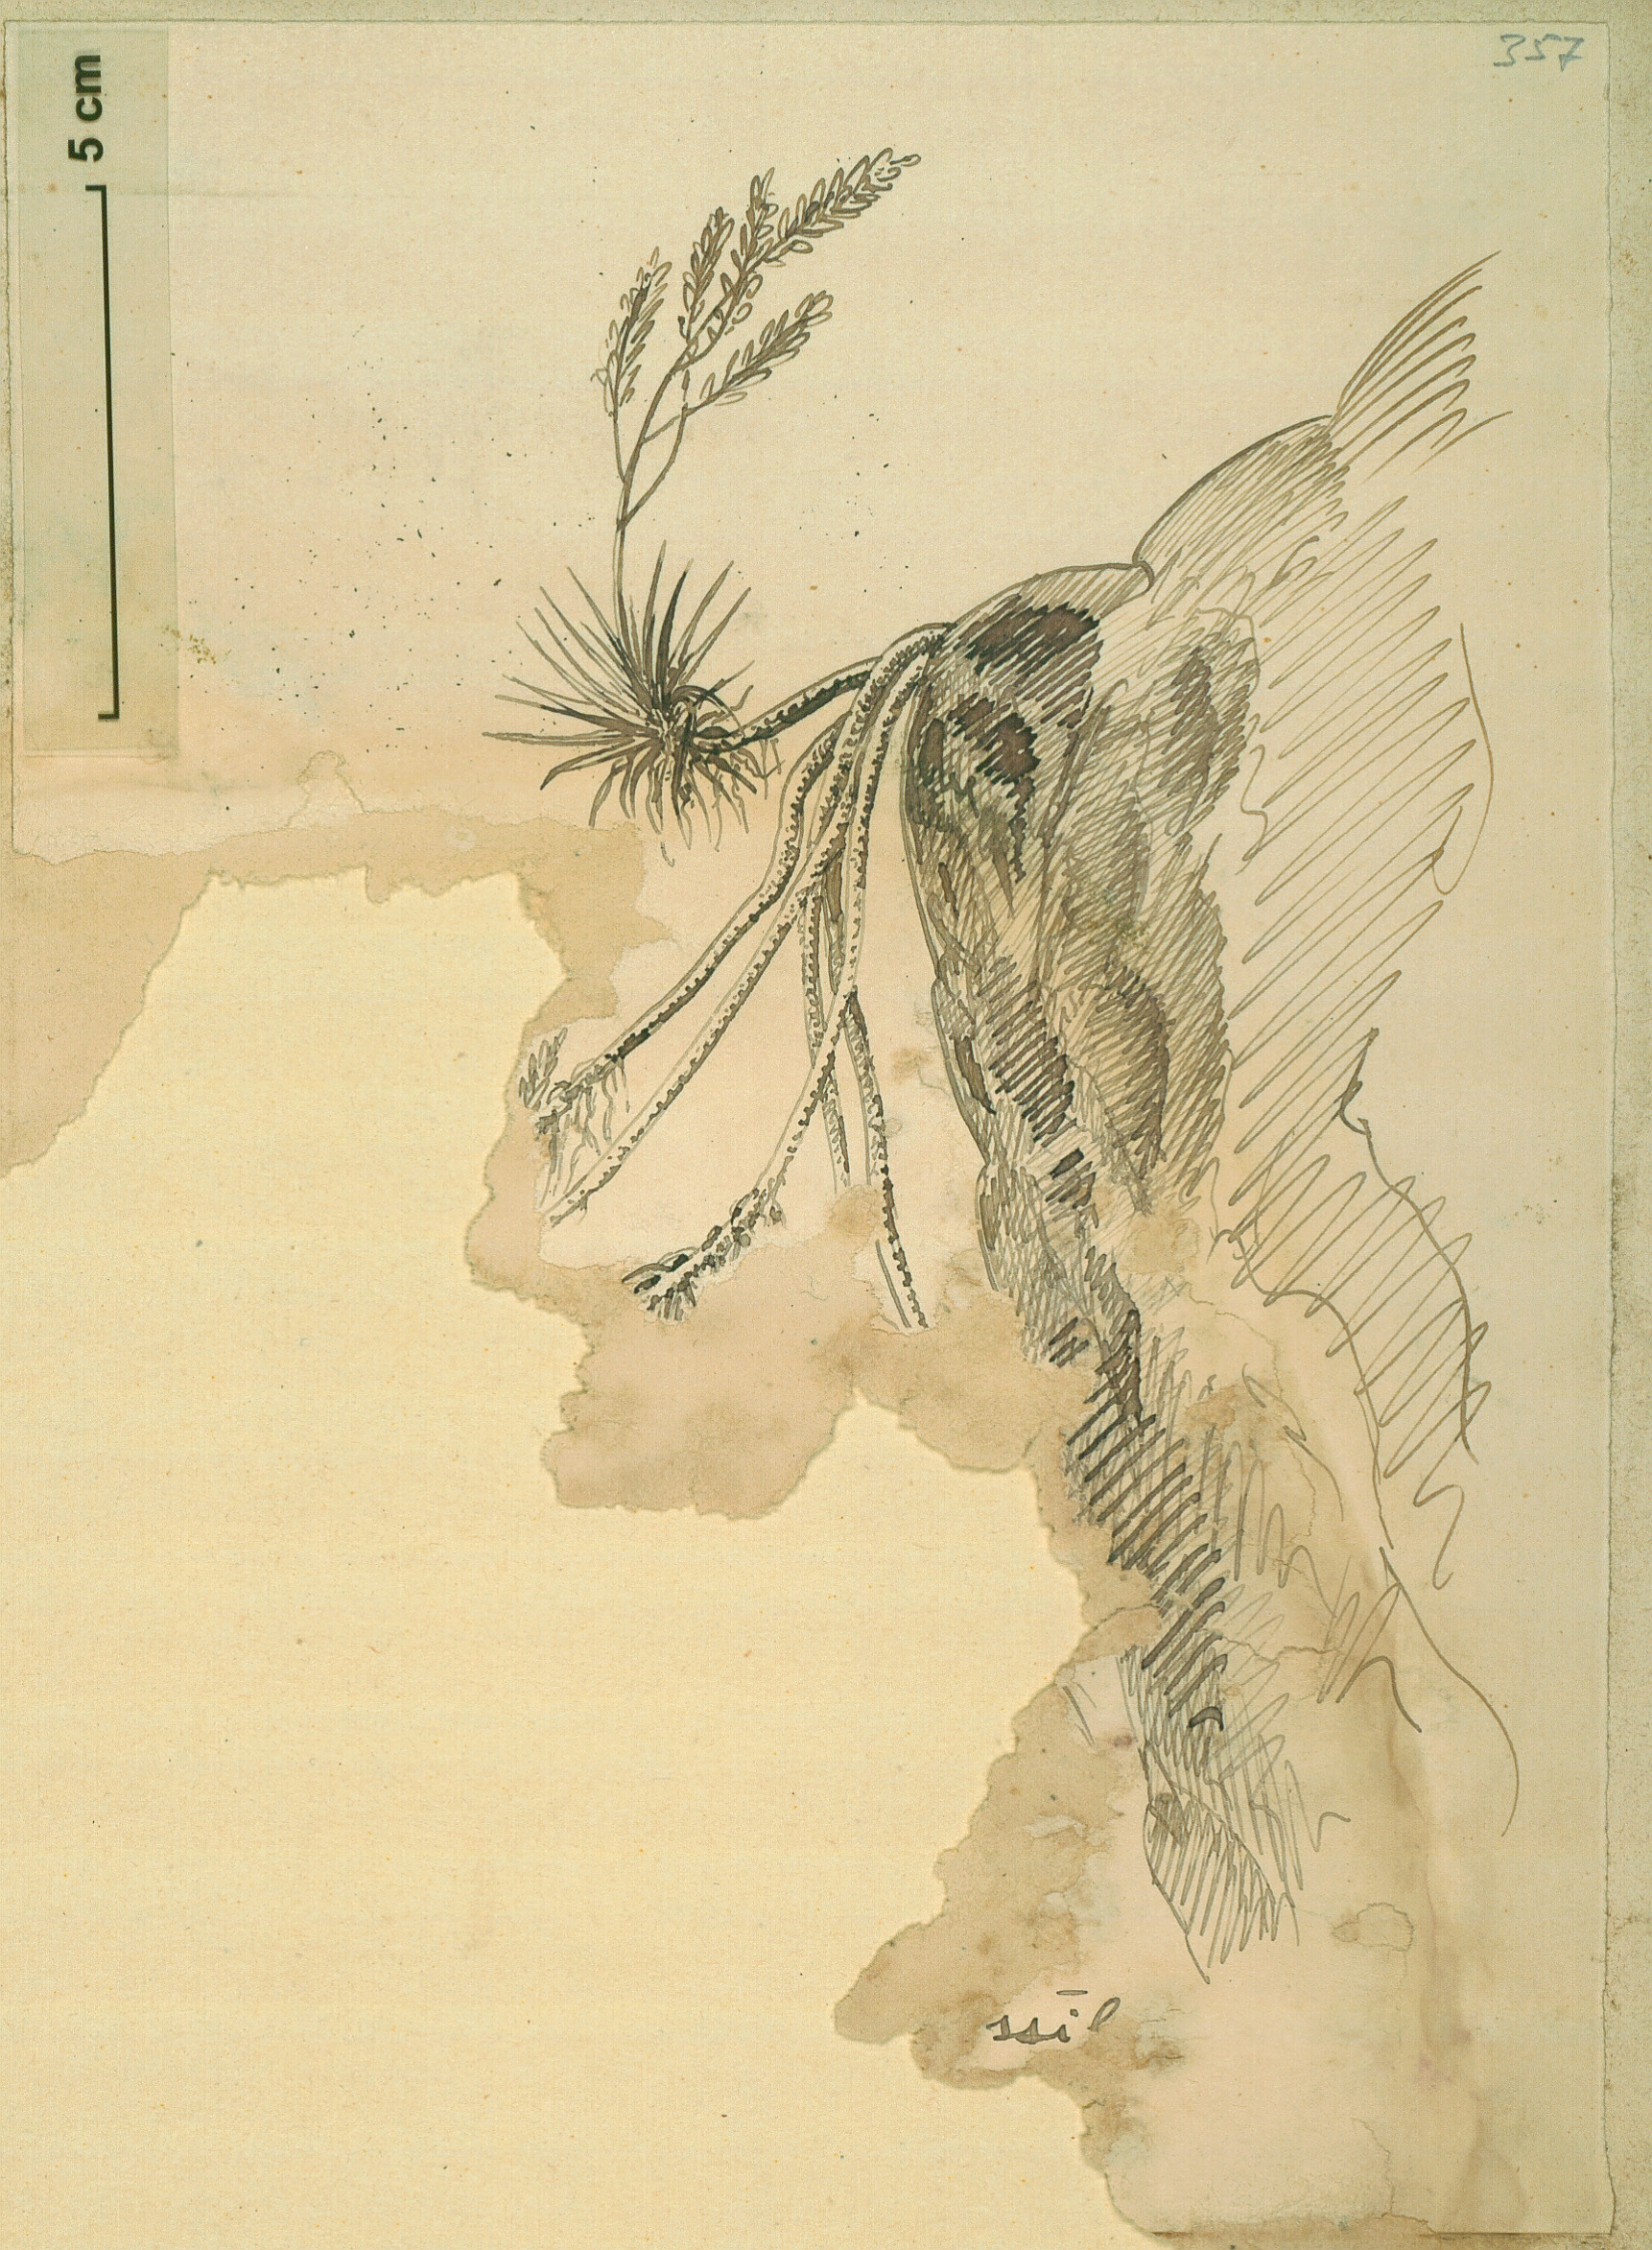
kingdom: Plantae
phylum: Tracheophyta
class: Liliopsida
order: Asparagales
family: Asphodelaceae
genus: Aloe
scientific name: Aloe pendens
